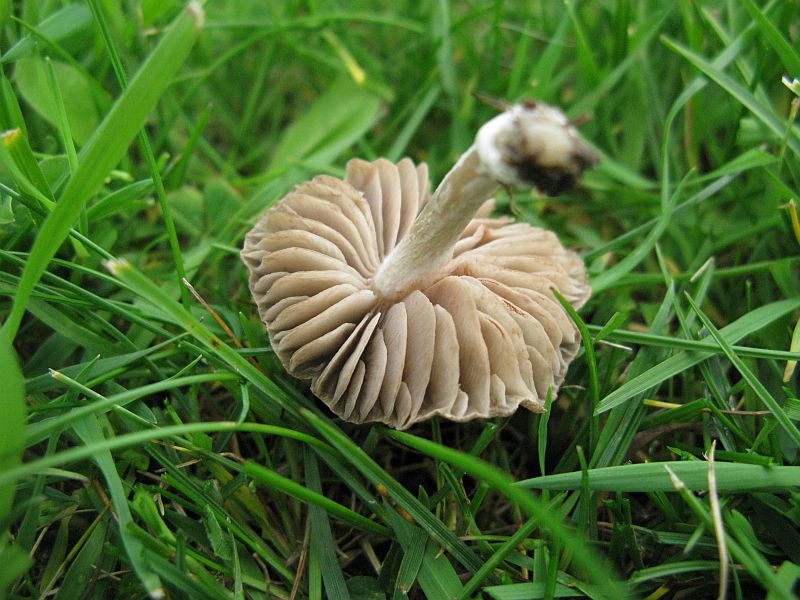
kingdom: Fungi
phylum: Basidiomycota
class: Agaricomycetes
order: Agaricales
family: Entolomataceae
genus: Entoloma
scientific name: Entoloma
